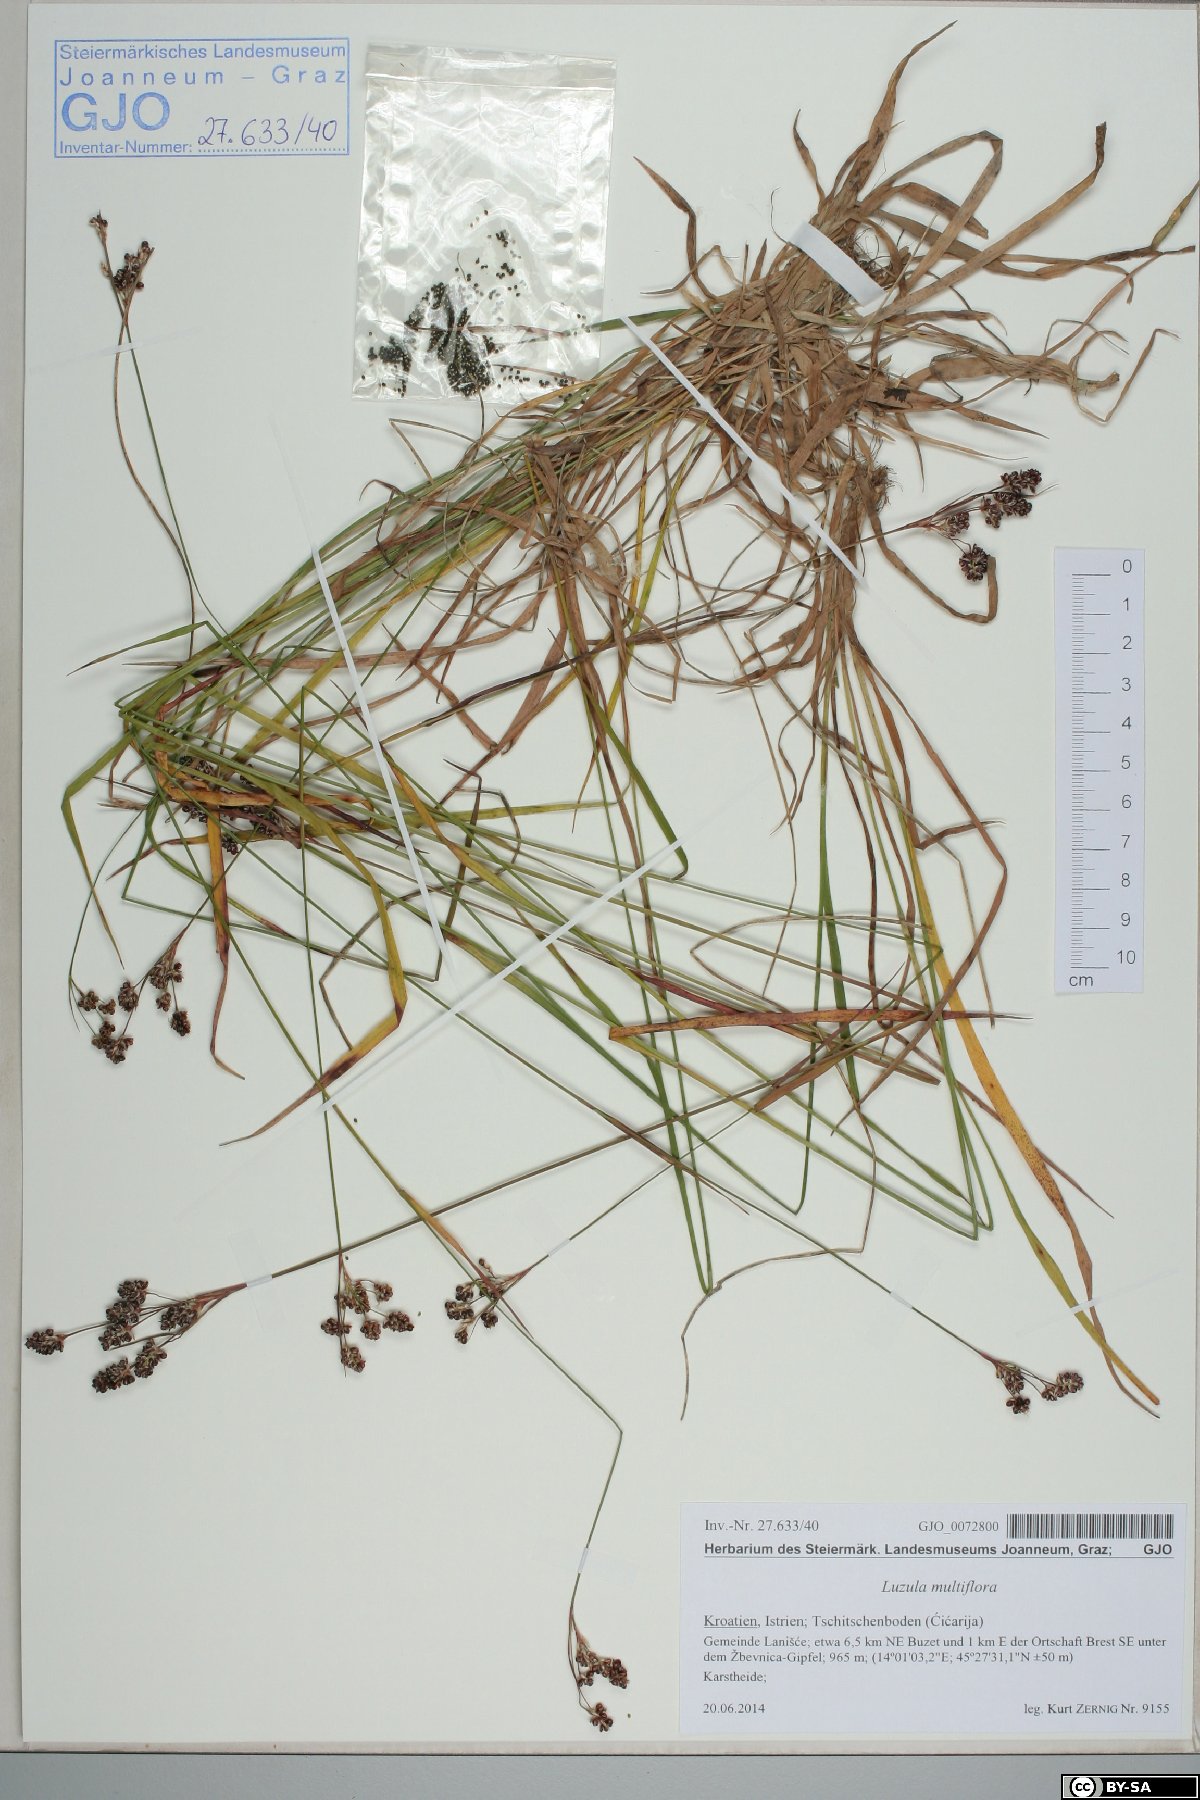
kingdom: Plantae
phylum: Tracheophyta
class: Liliopsida
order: Poales
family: Juncaceae
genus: Luzula
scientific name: Luzula multiflora
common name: Heath wood-rush
